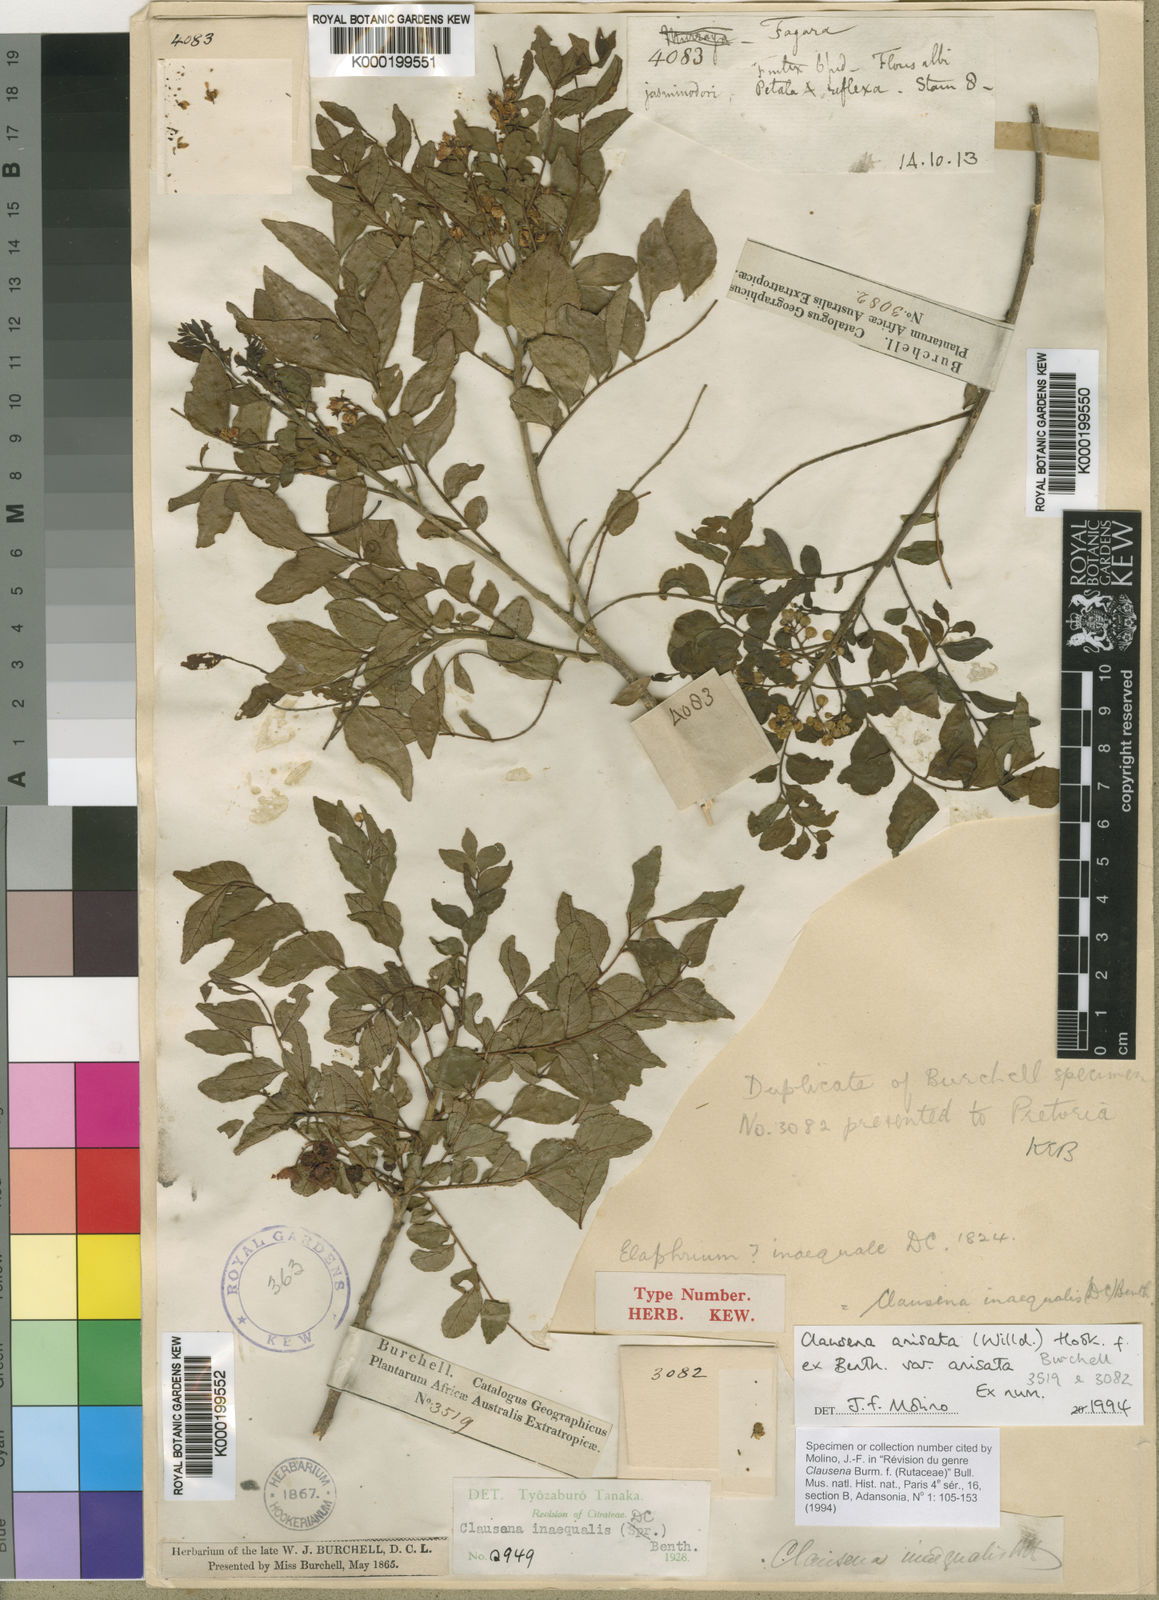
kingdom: Plantae
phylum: Tracheophyta
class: Magnoliopsida
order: Sapindales
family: Rutaceae
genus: Clausena
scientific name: Clausena anisata
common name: Horsewood
